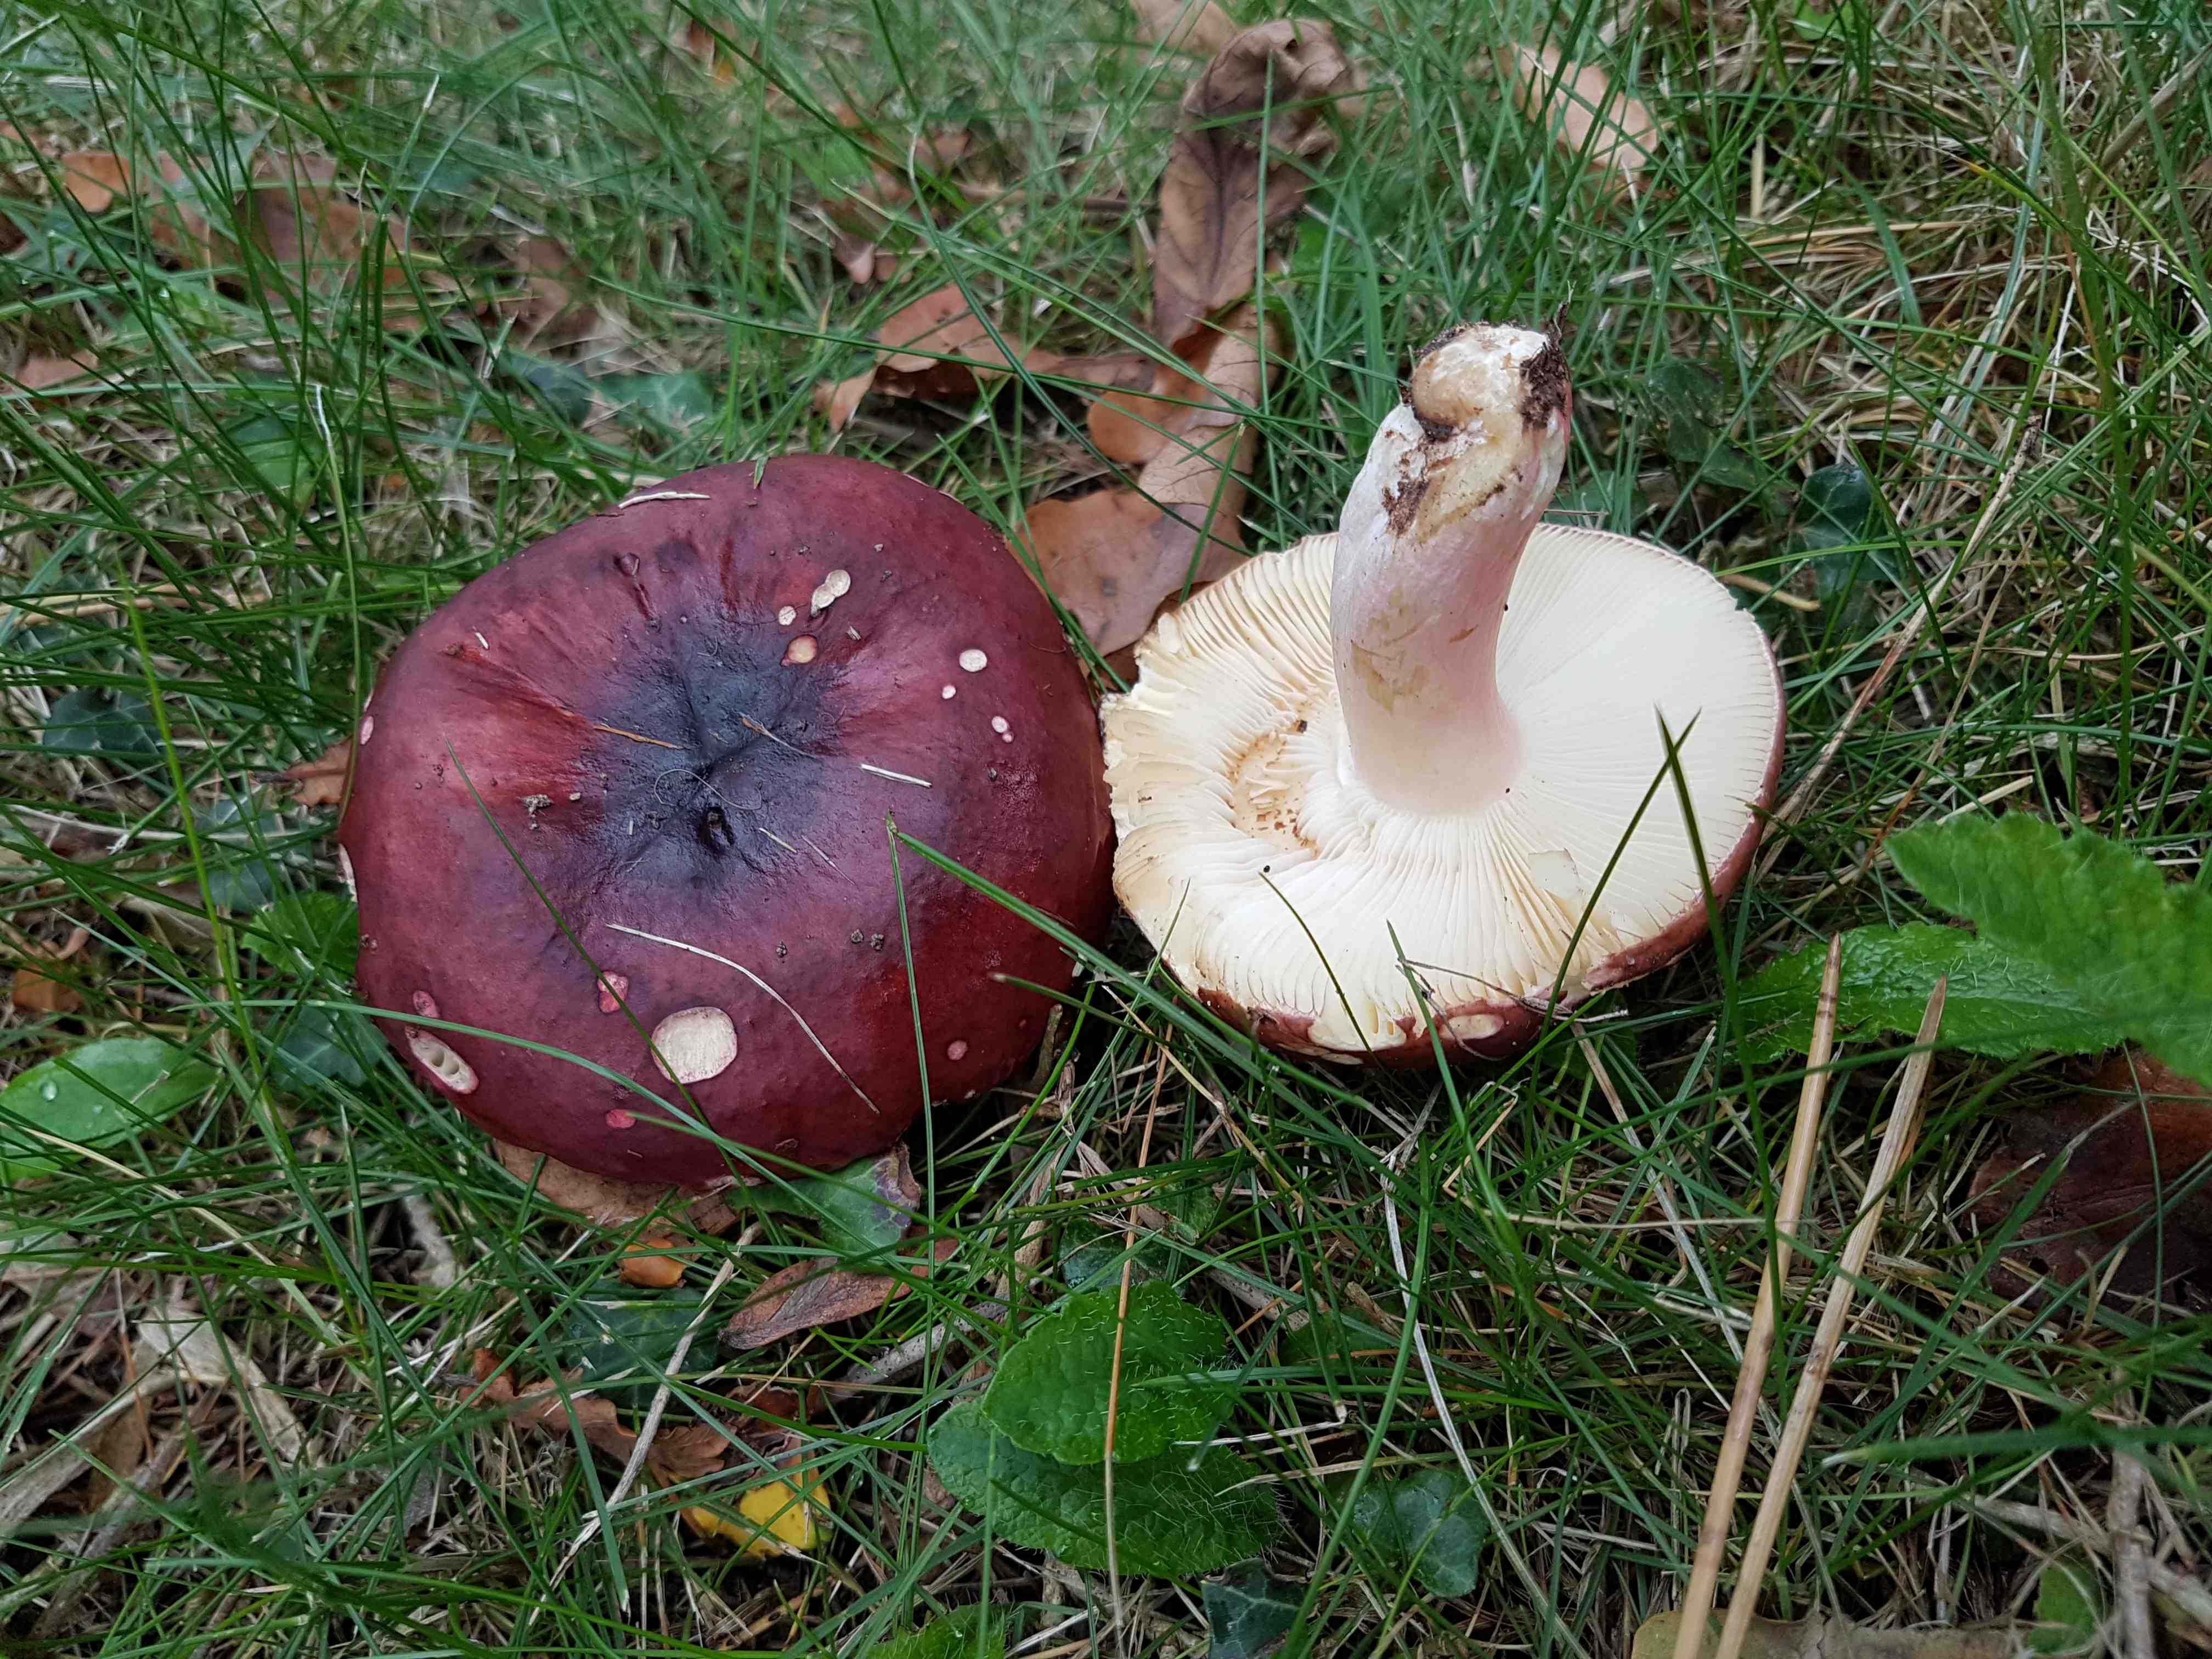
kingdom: Fungi
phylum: Basidiomycota
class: Agaricomycetes
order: Russulales
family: Russulaceae
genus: Russula
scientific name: Russula
